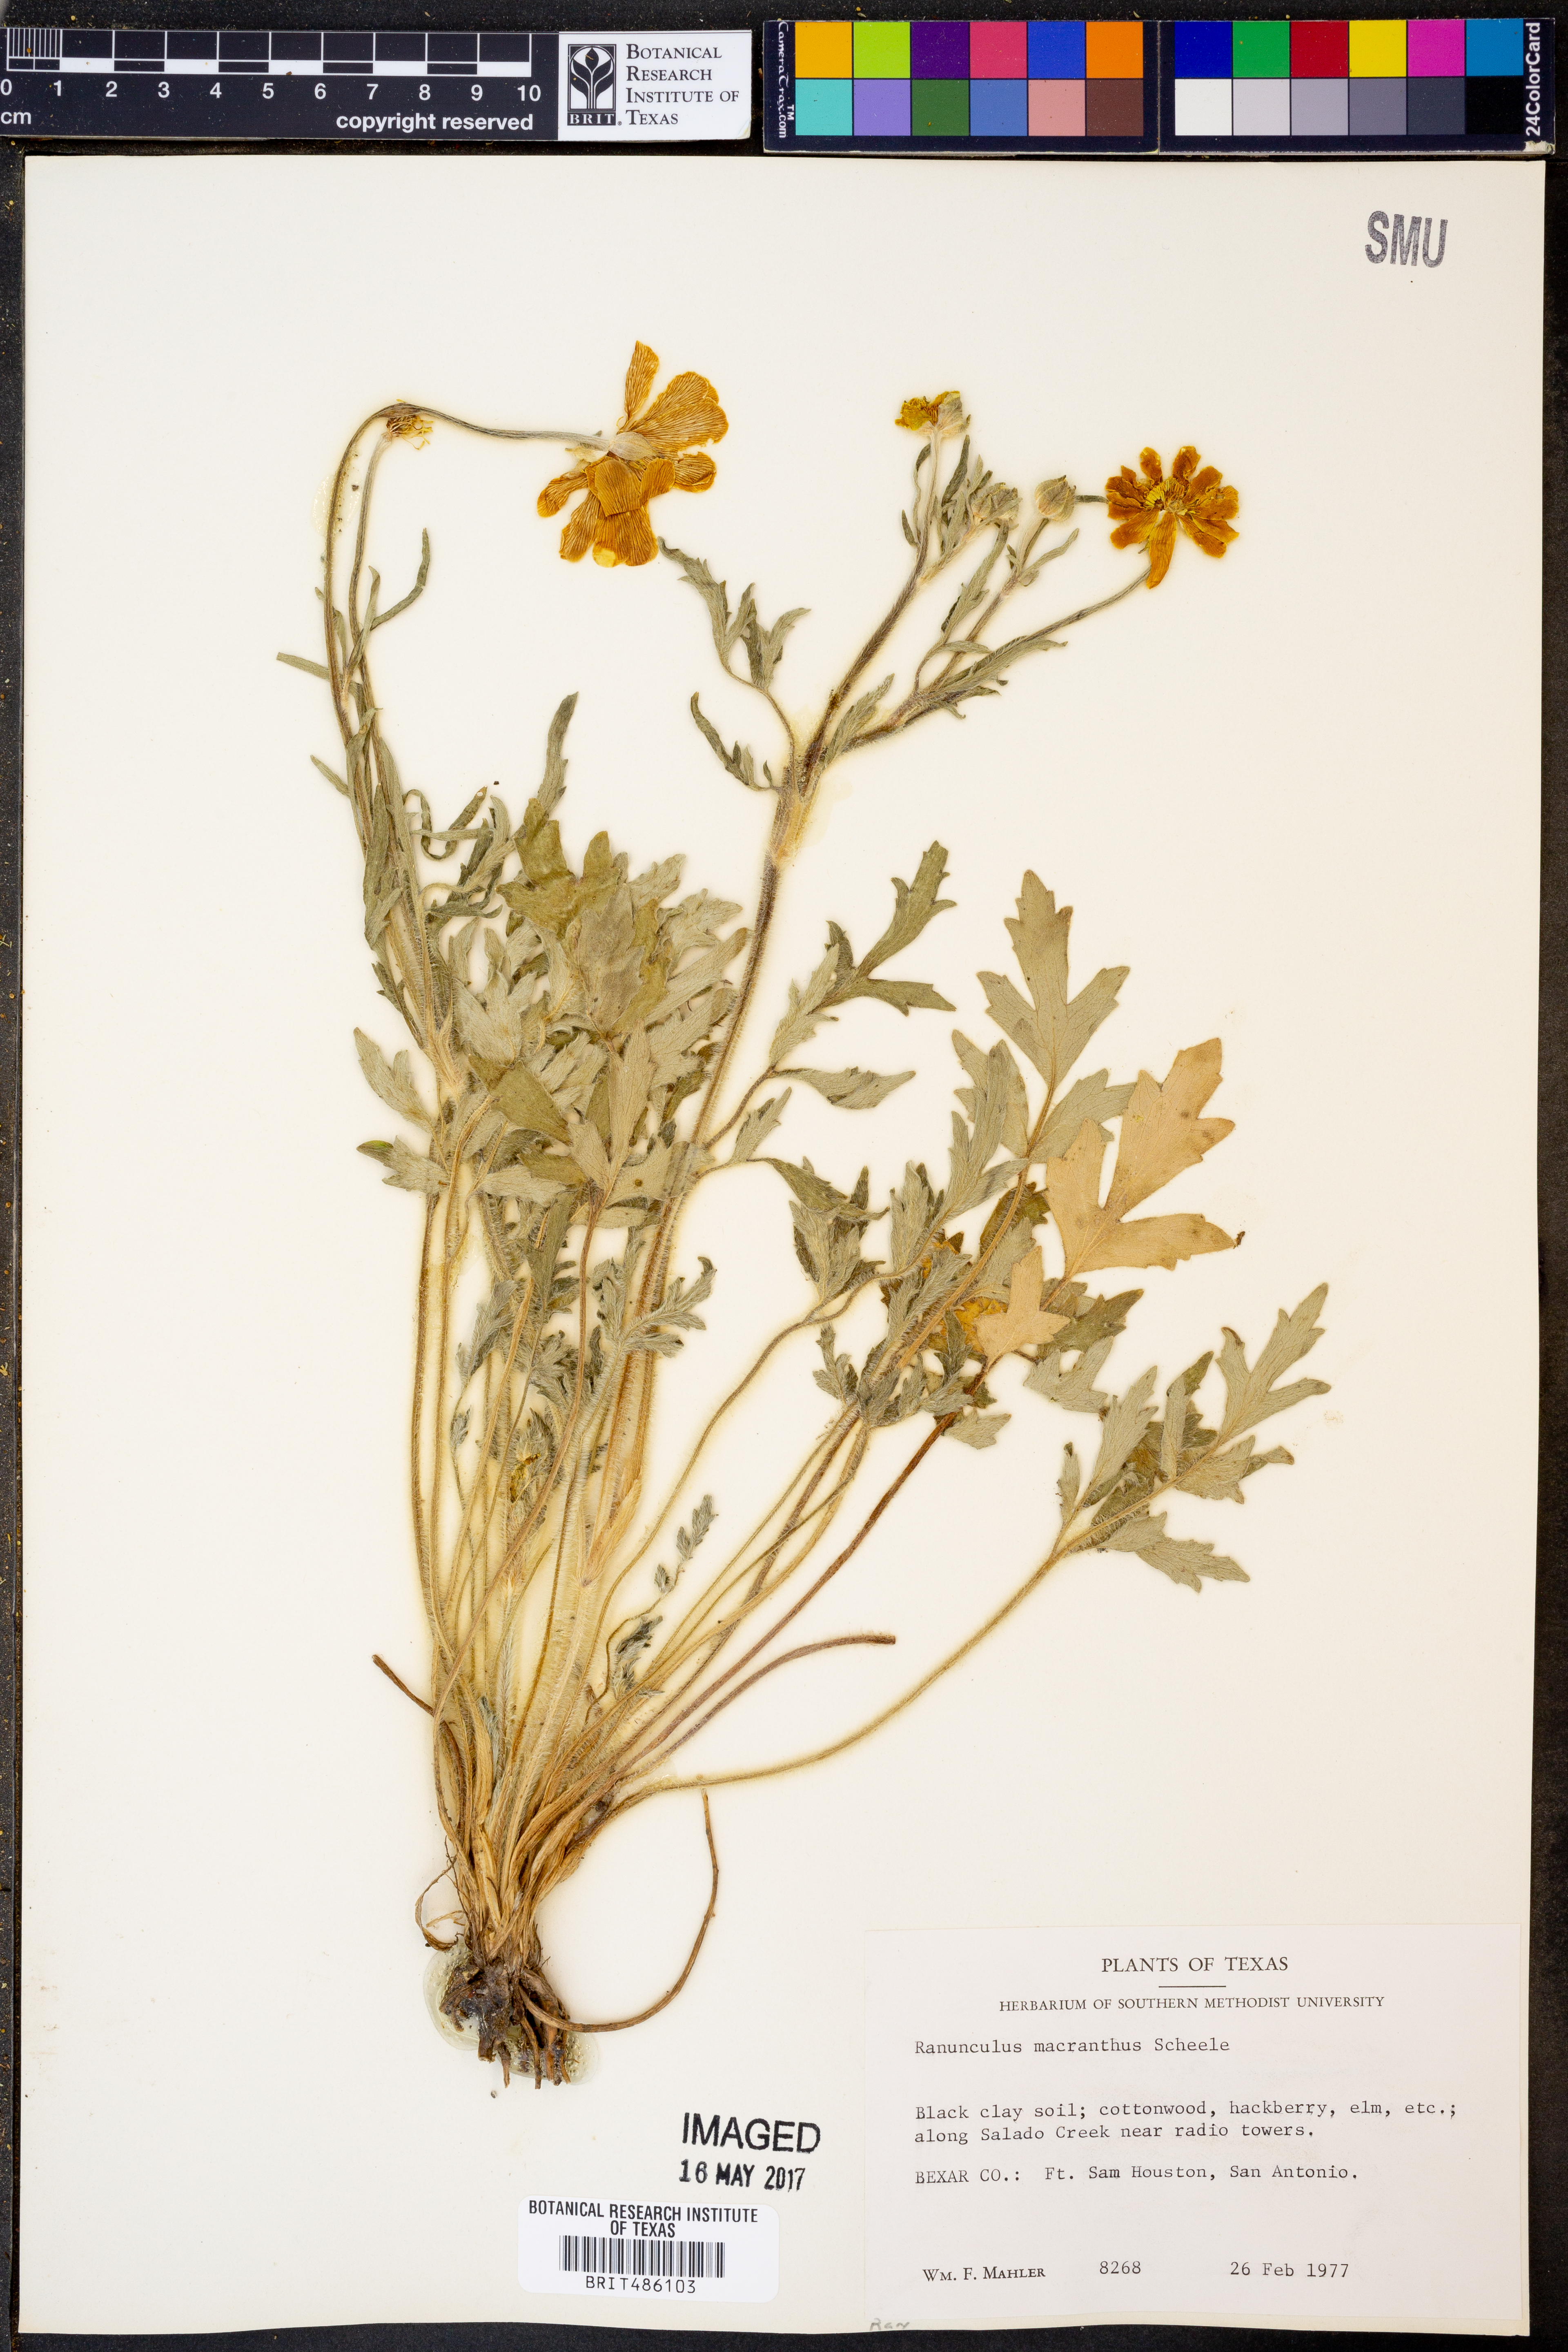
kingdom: Plantae
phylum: Tracheophyta
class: Magnoliopsida
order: Ranunculales
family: Ranunculaceae
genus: Ranunculus
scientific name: Ranunculus macranthus
